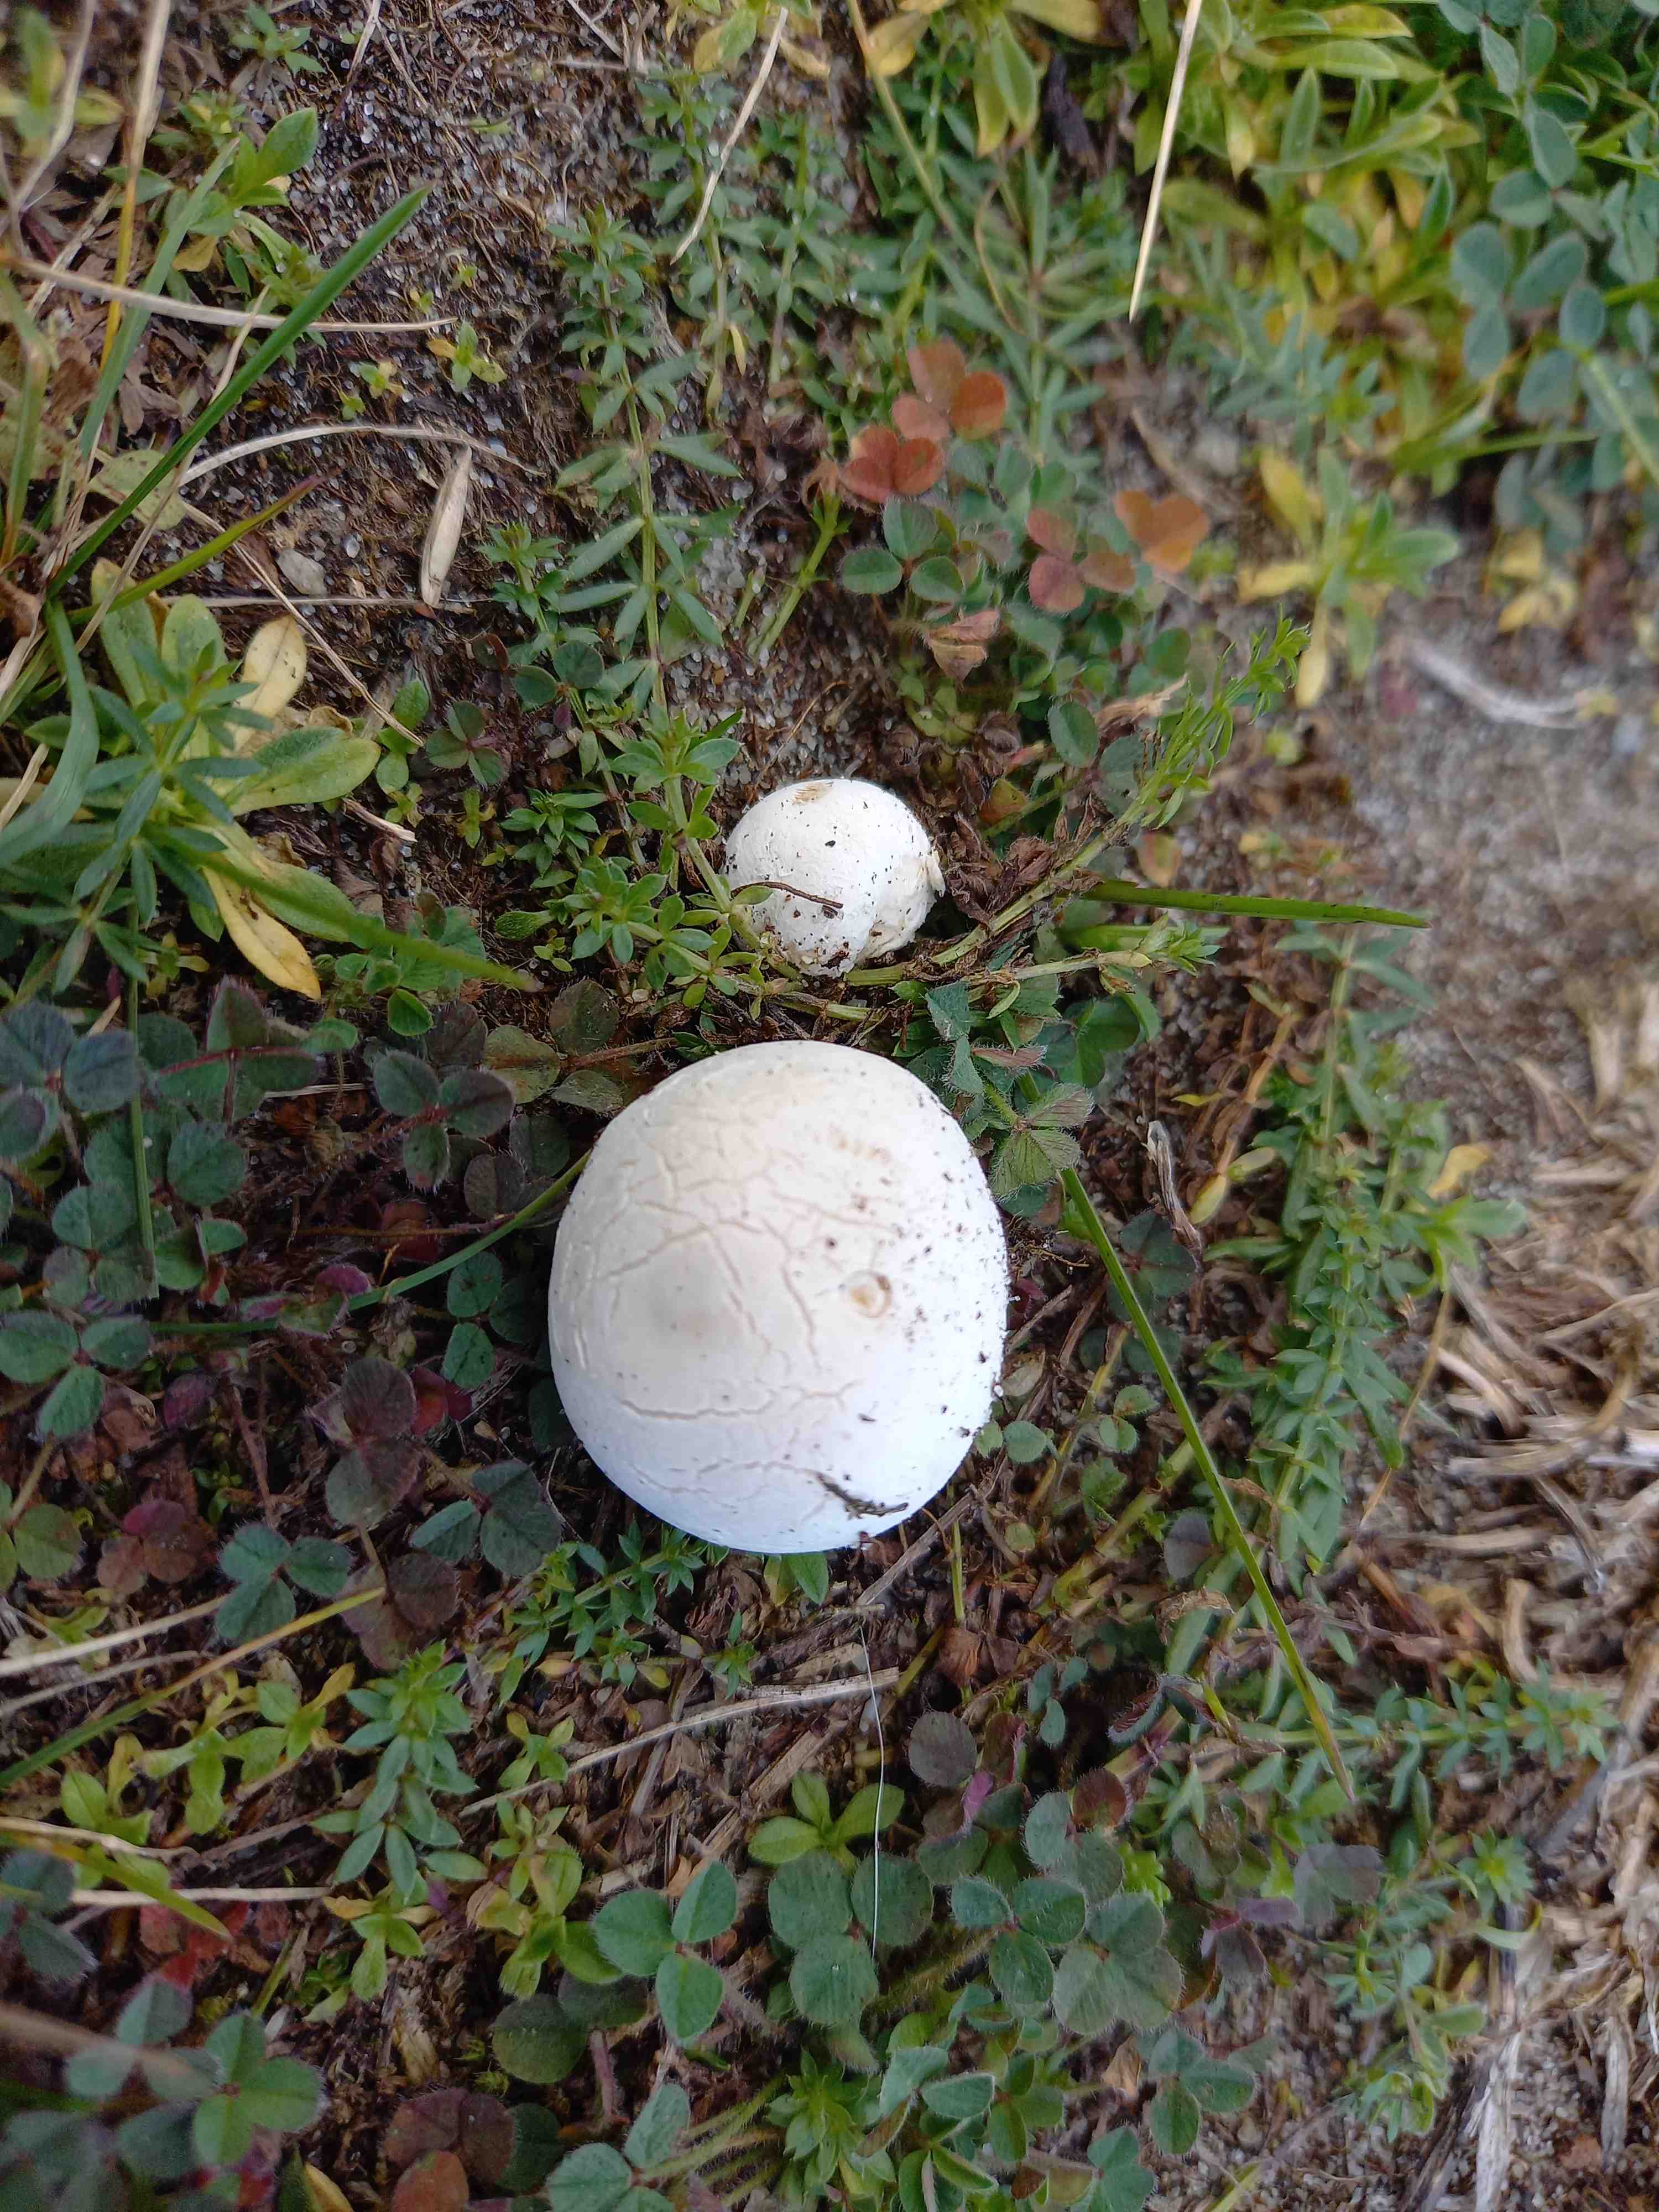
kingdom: Fungi
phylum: Basidiomycota
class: Agaricomycetes
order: Agaricales
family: Lycoperdaceae
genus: Bovista
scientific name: Bovista
